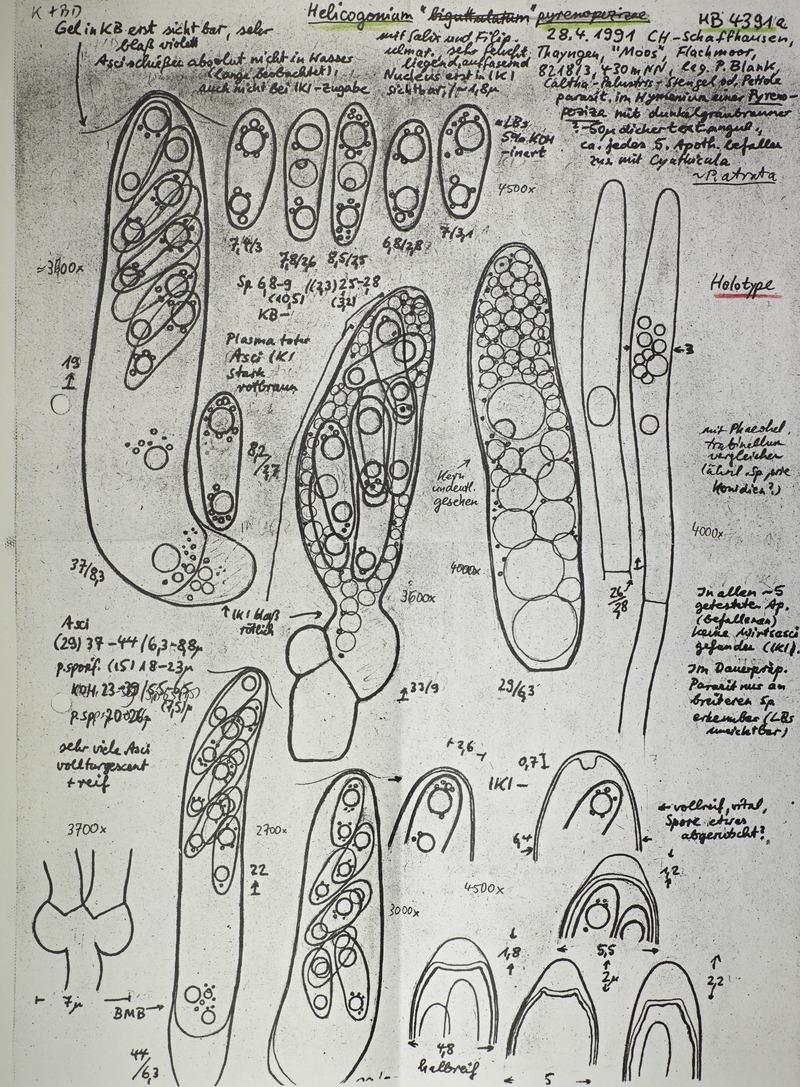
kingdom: Fungi
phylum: Ascomycota
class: Leotiomycetes
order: Phacidiales
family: Helicogoniaceae
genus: Helicogonium
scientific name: Helicogonium trabinelloides
